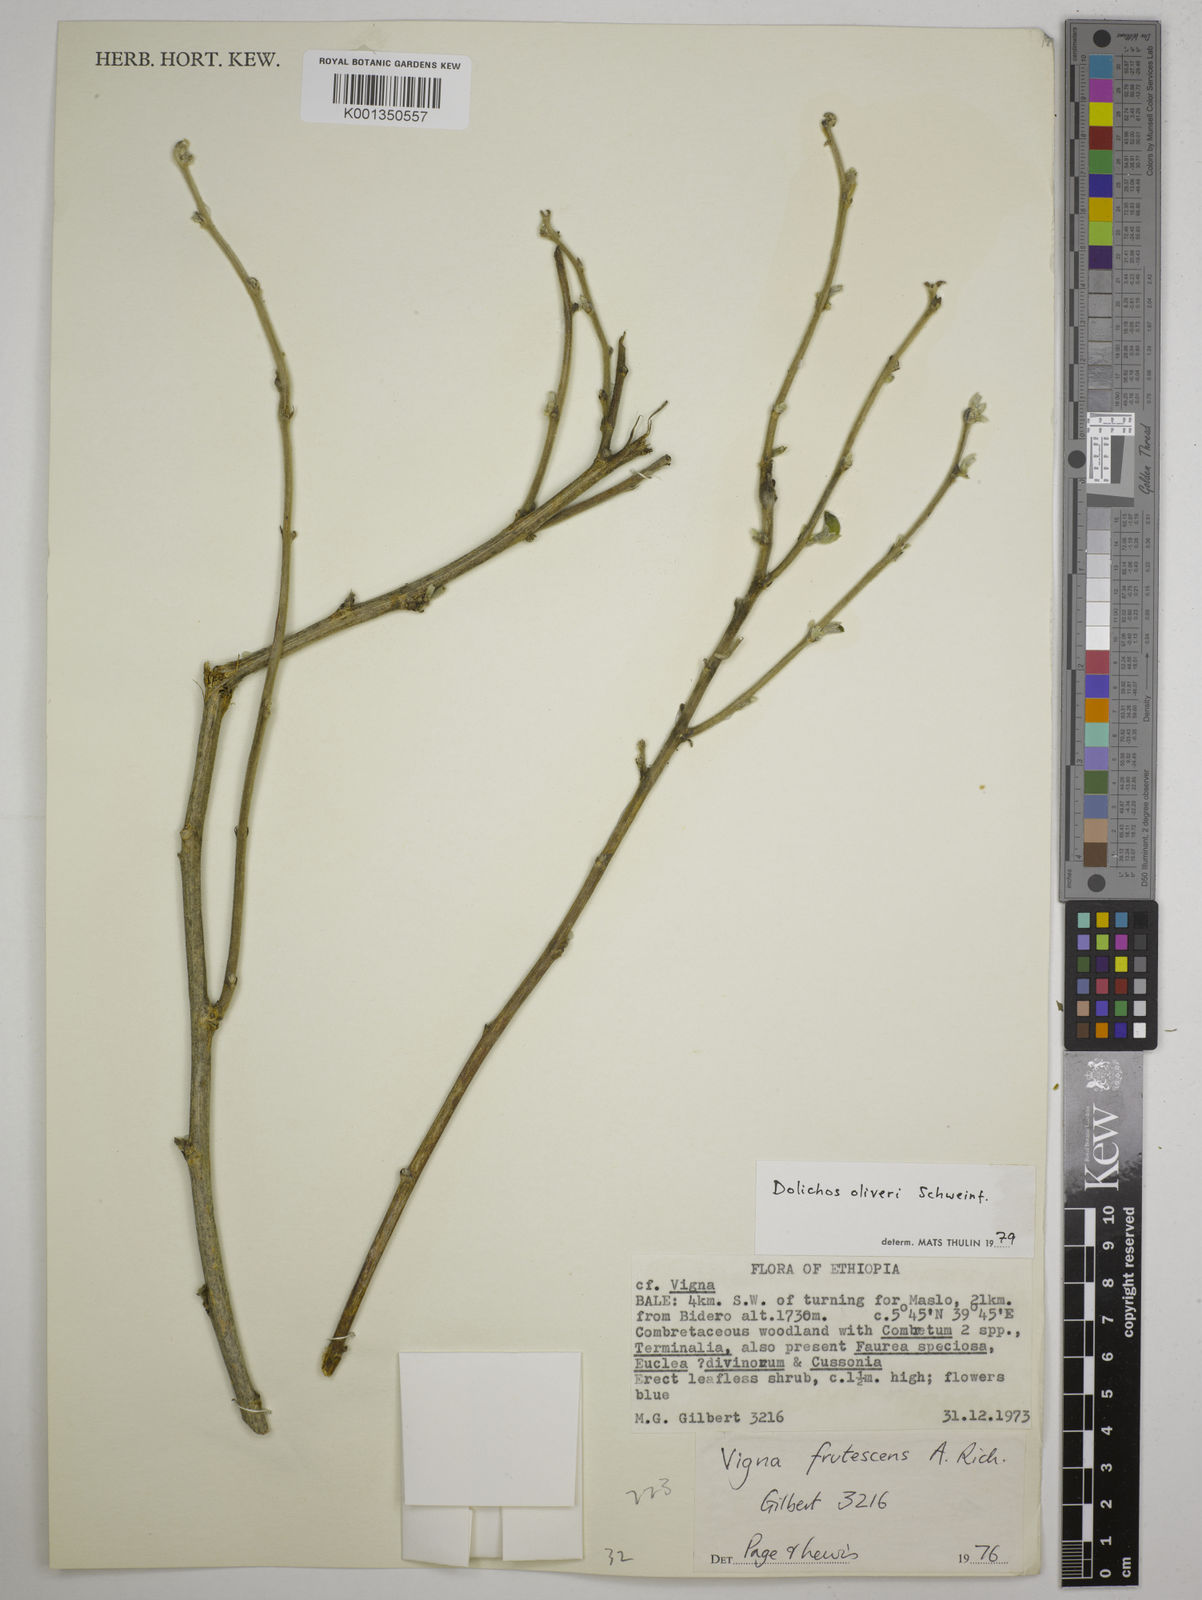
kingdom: Plantae
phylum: Tracheophyta
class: Magnoliopsida
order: Fabales
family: Fabaceae
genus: Dolichos
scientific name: Dolichos oliveri
